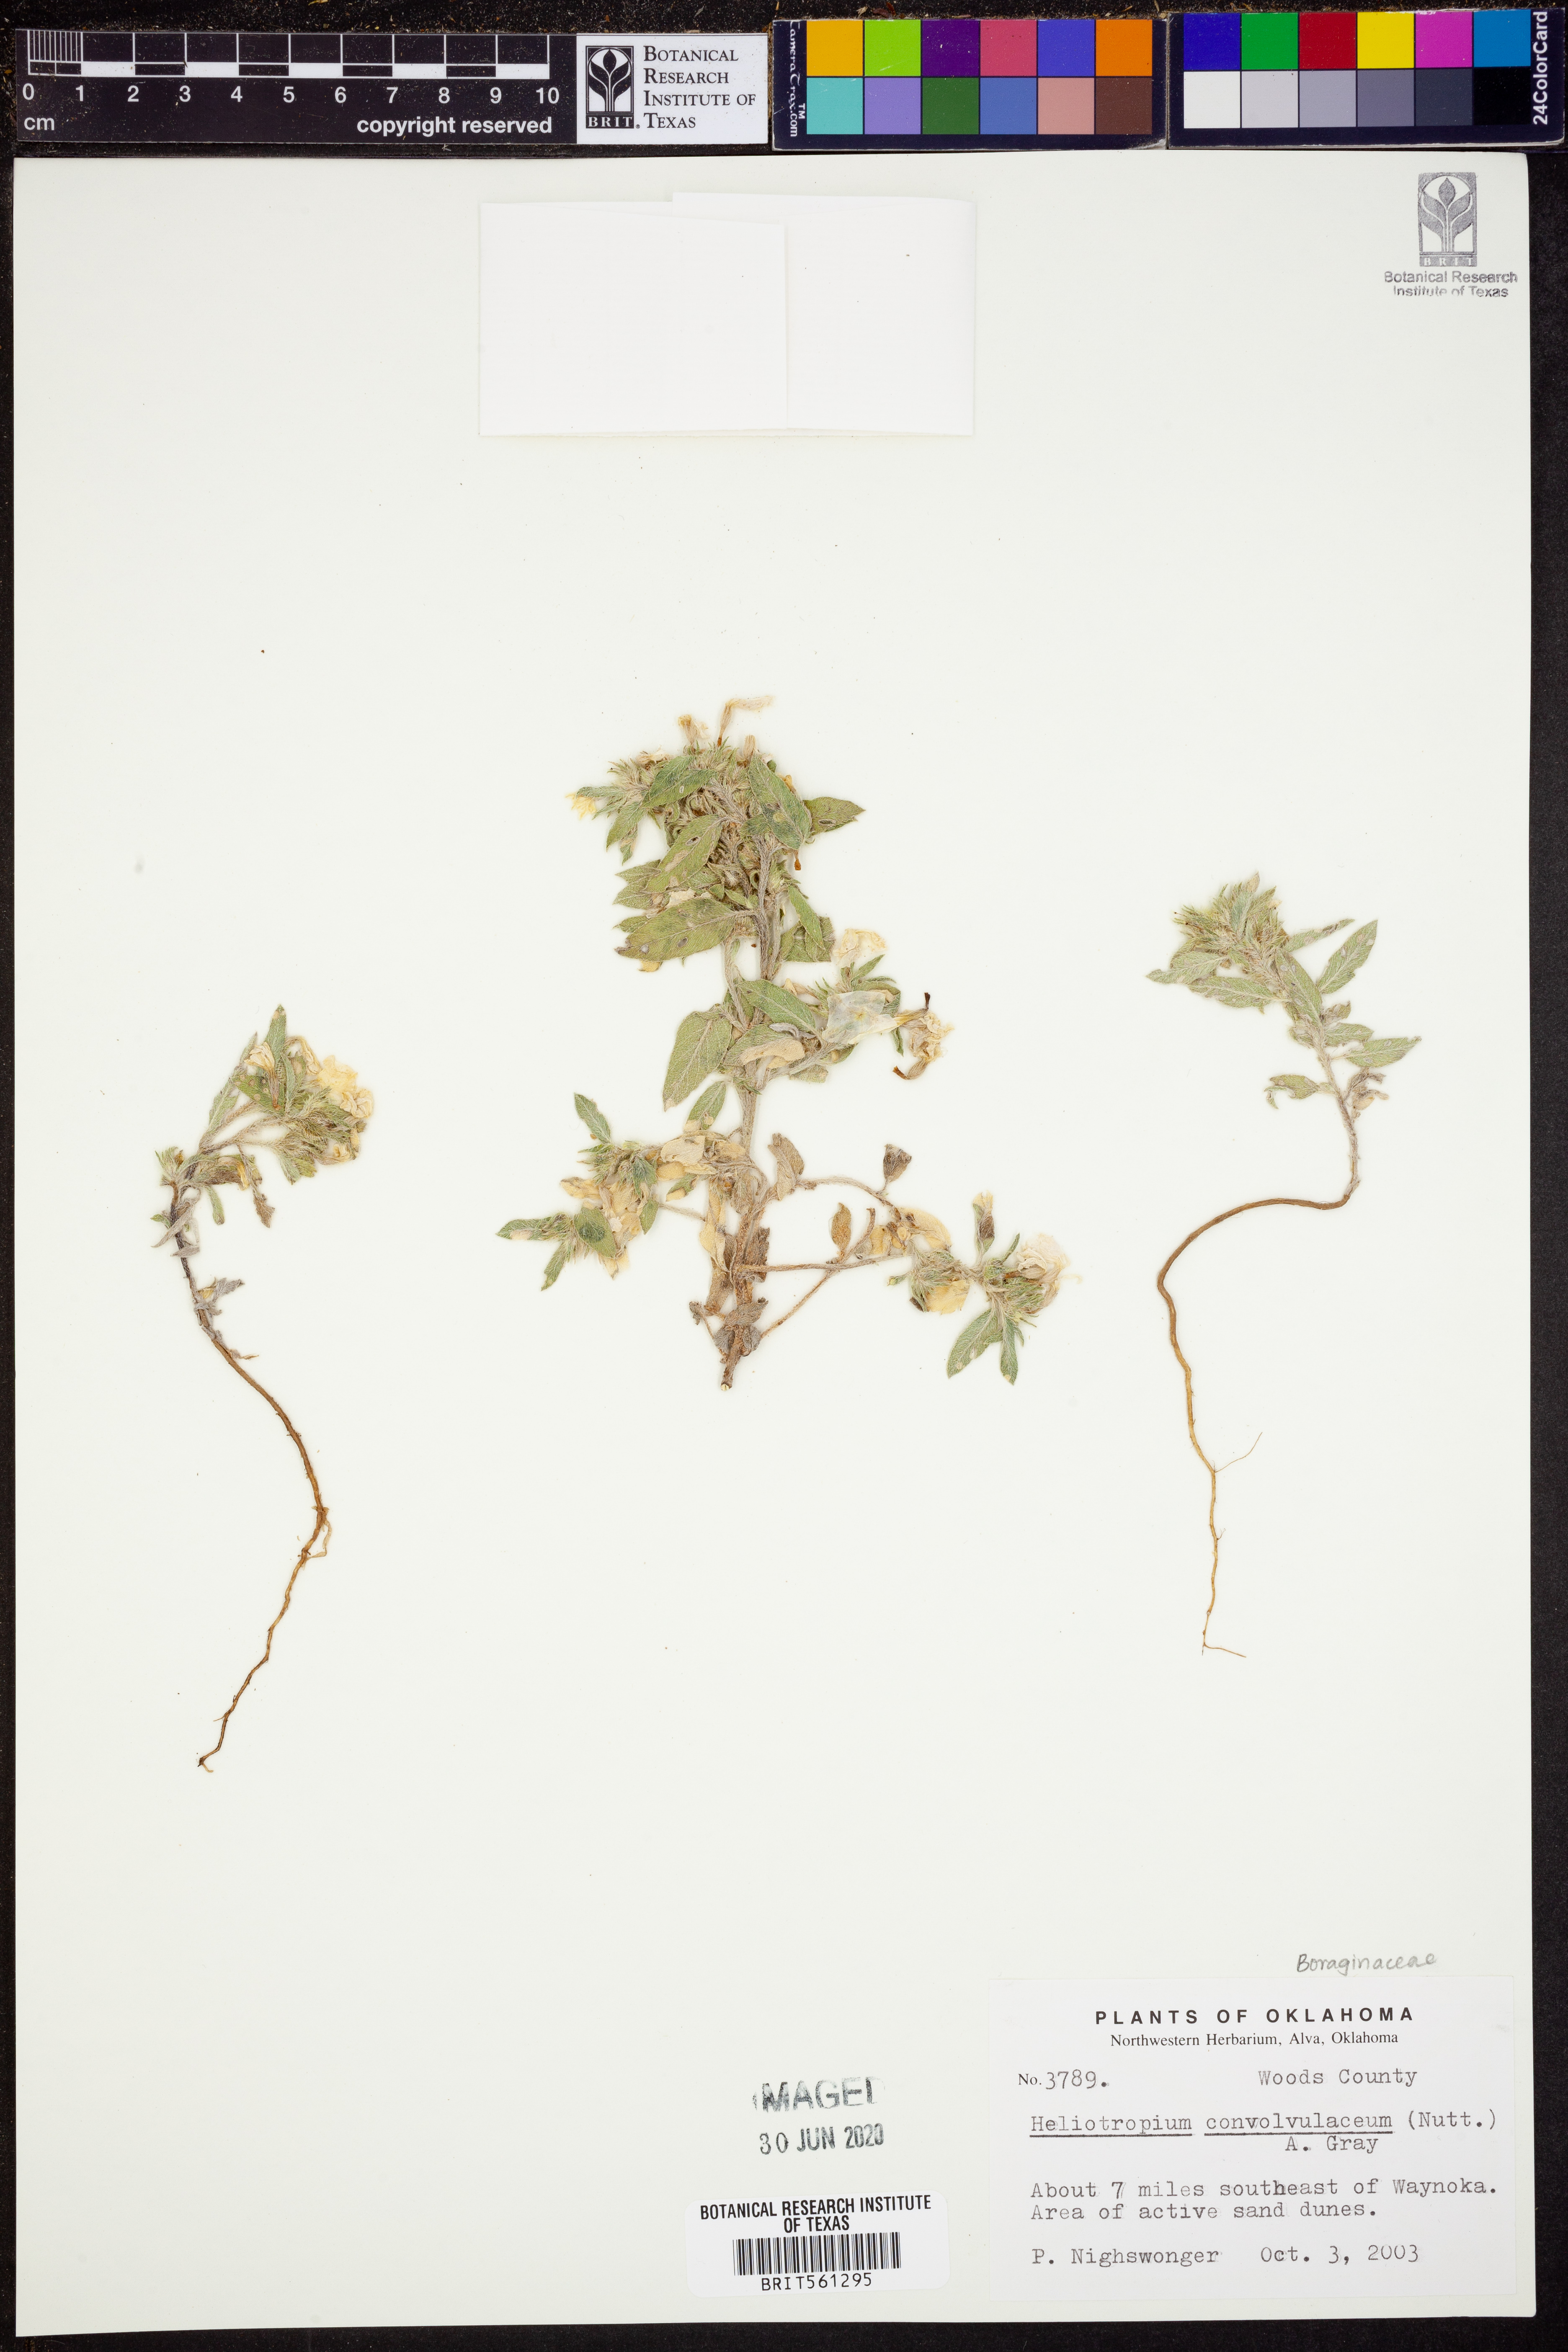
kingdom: Plantae
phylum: Tracheophyta
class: Magnoliopsida
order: Boraginales
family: Heliotropiaceae
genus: Euploca
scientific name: Euploca convolvulacea
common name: Bindweed heliotrope
